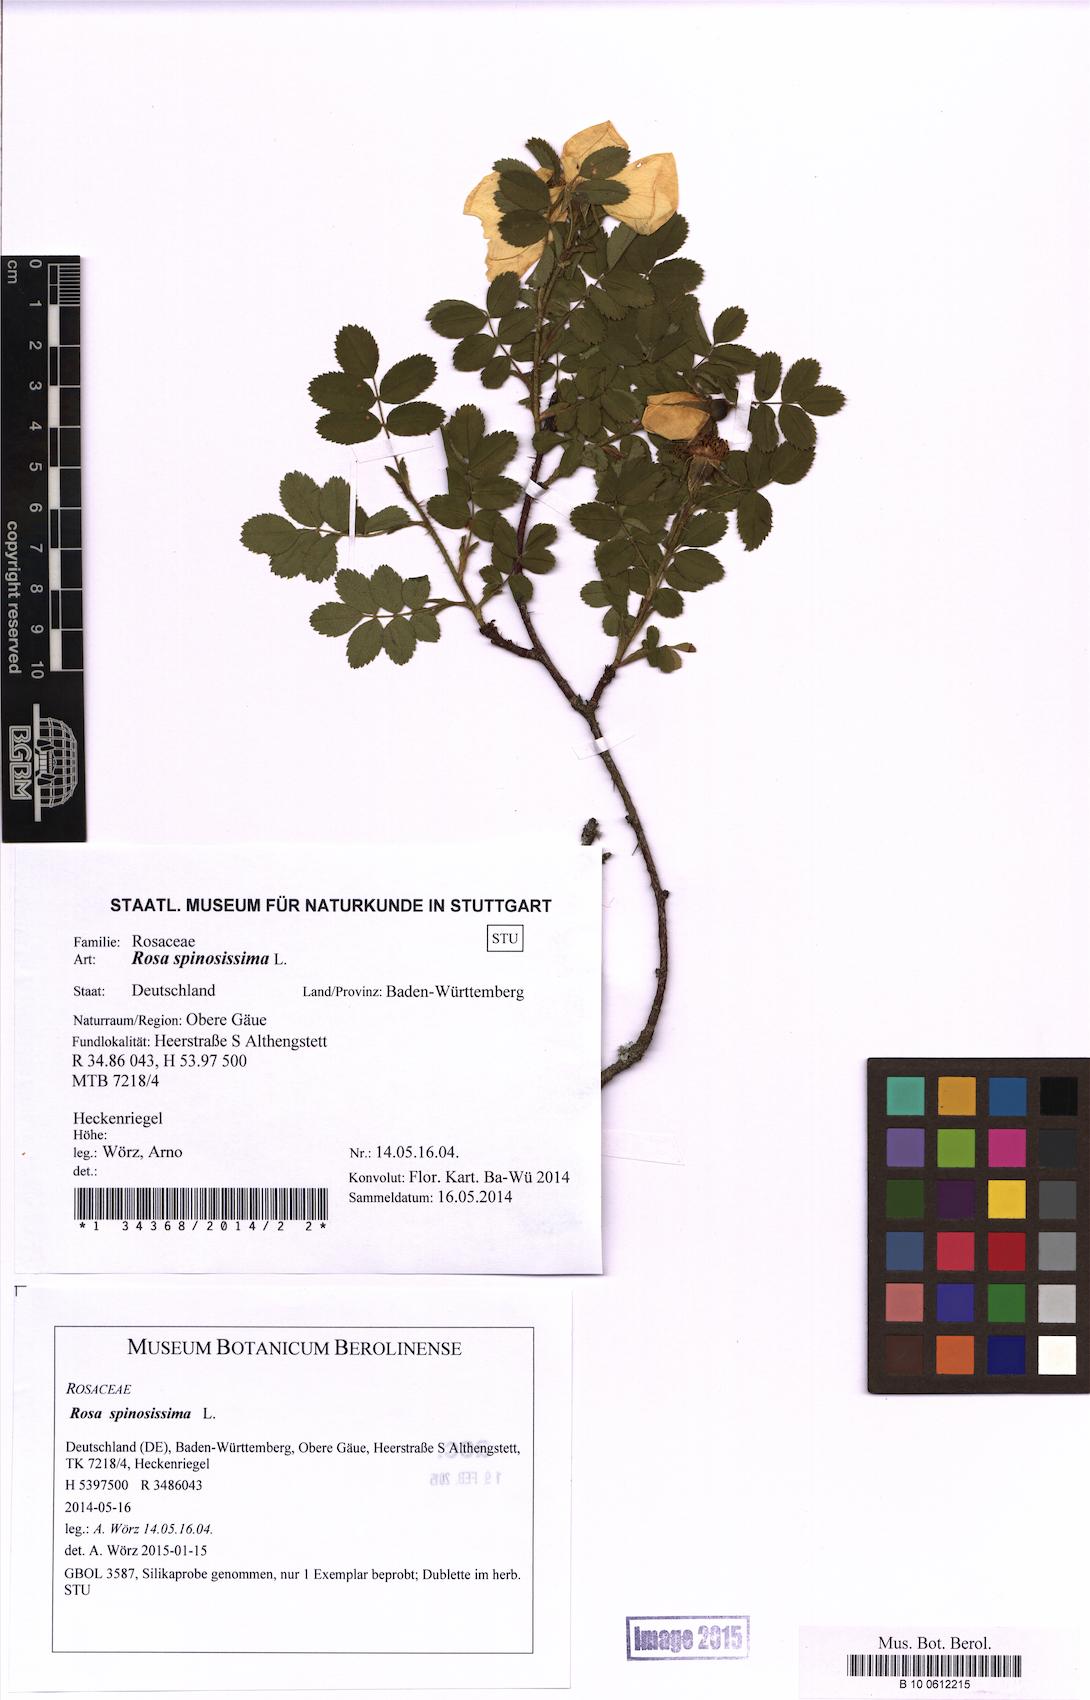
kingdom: Plantae
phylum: Tracheophyta
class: Magnoliopsida
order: Rosales
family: Rosaceae
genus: Rosa
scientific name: Rosa spinosissima
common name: Burnet rose
